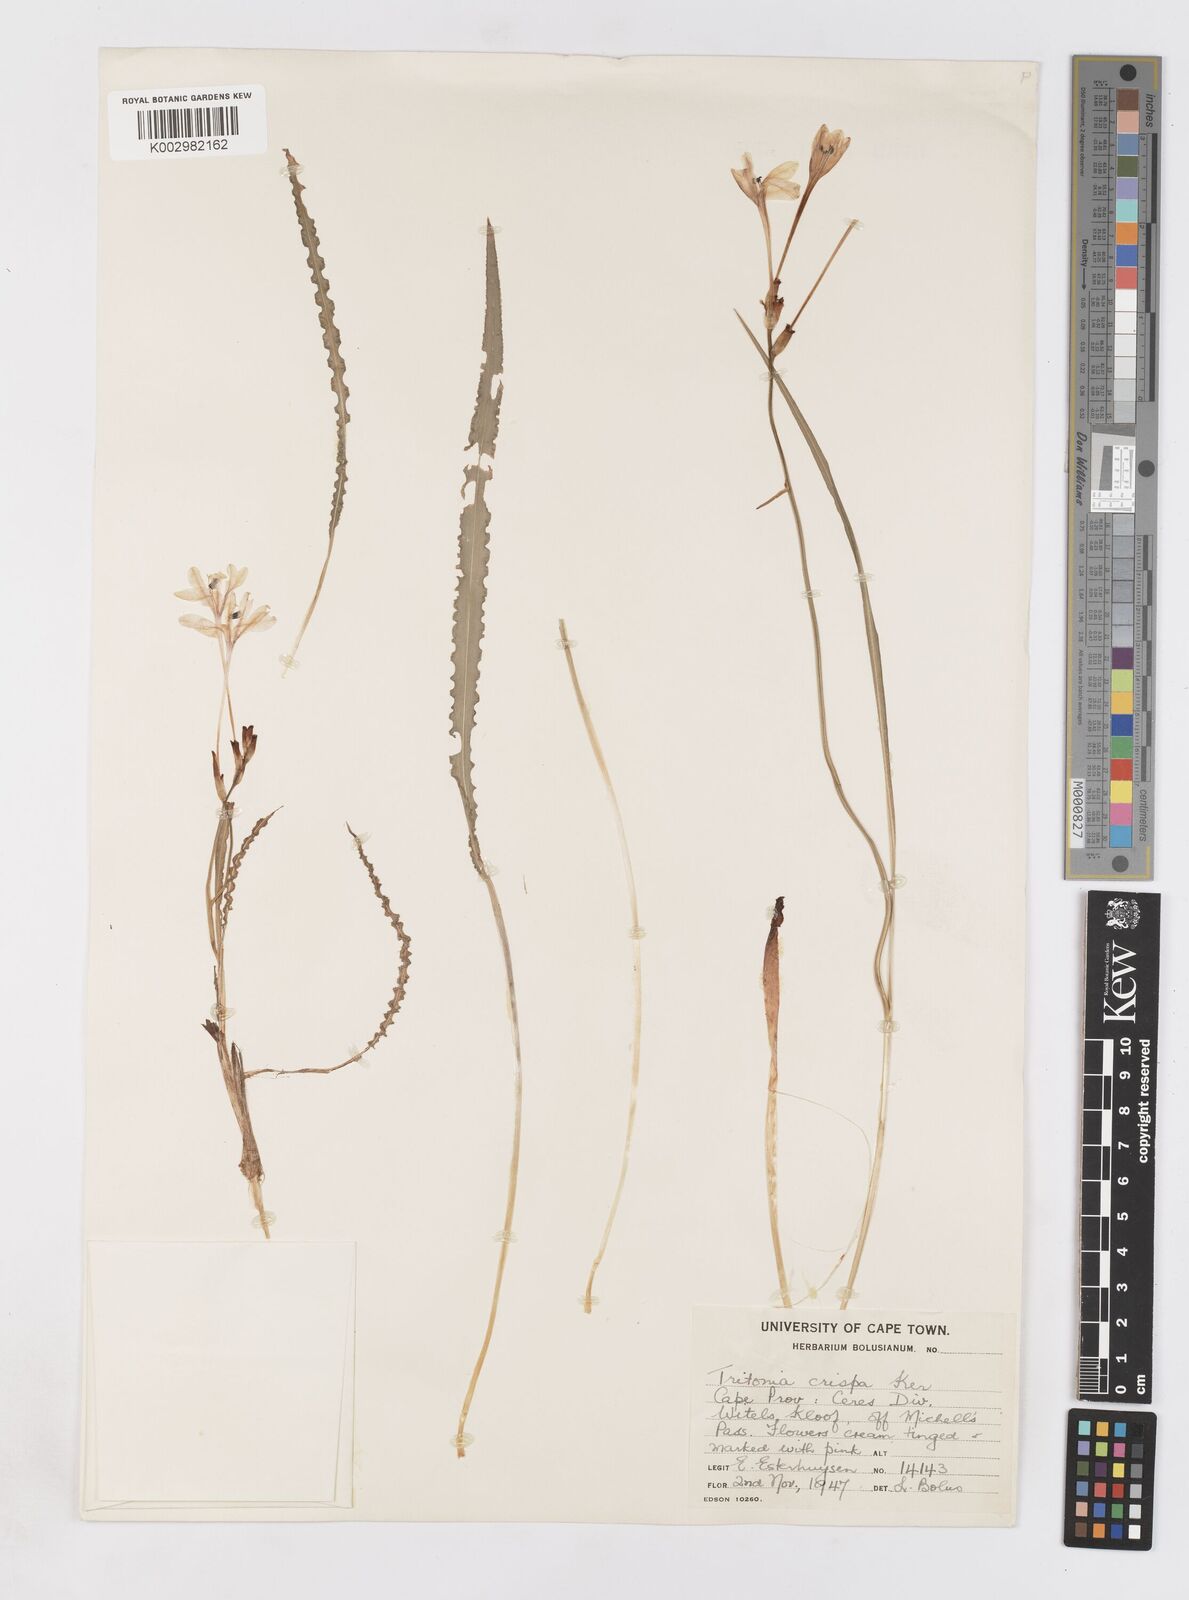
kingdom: Plantae
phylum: Tracheophyta
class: Liliopsida
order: Asparagales
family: Iridaceae
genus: Tritonia
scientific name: Tritonia undulata
